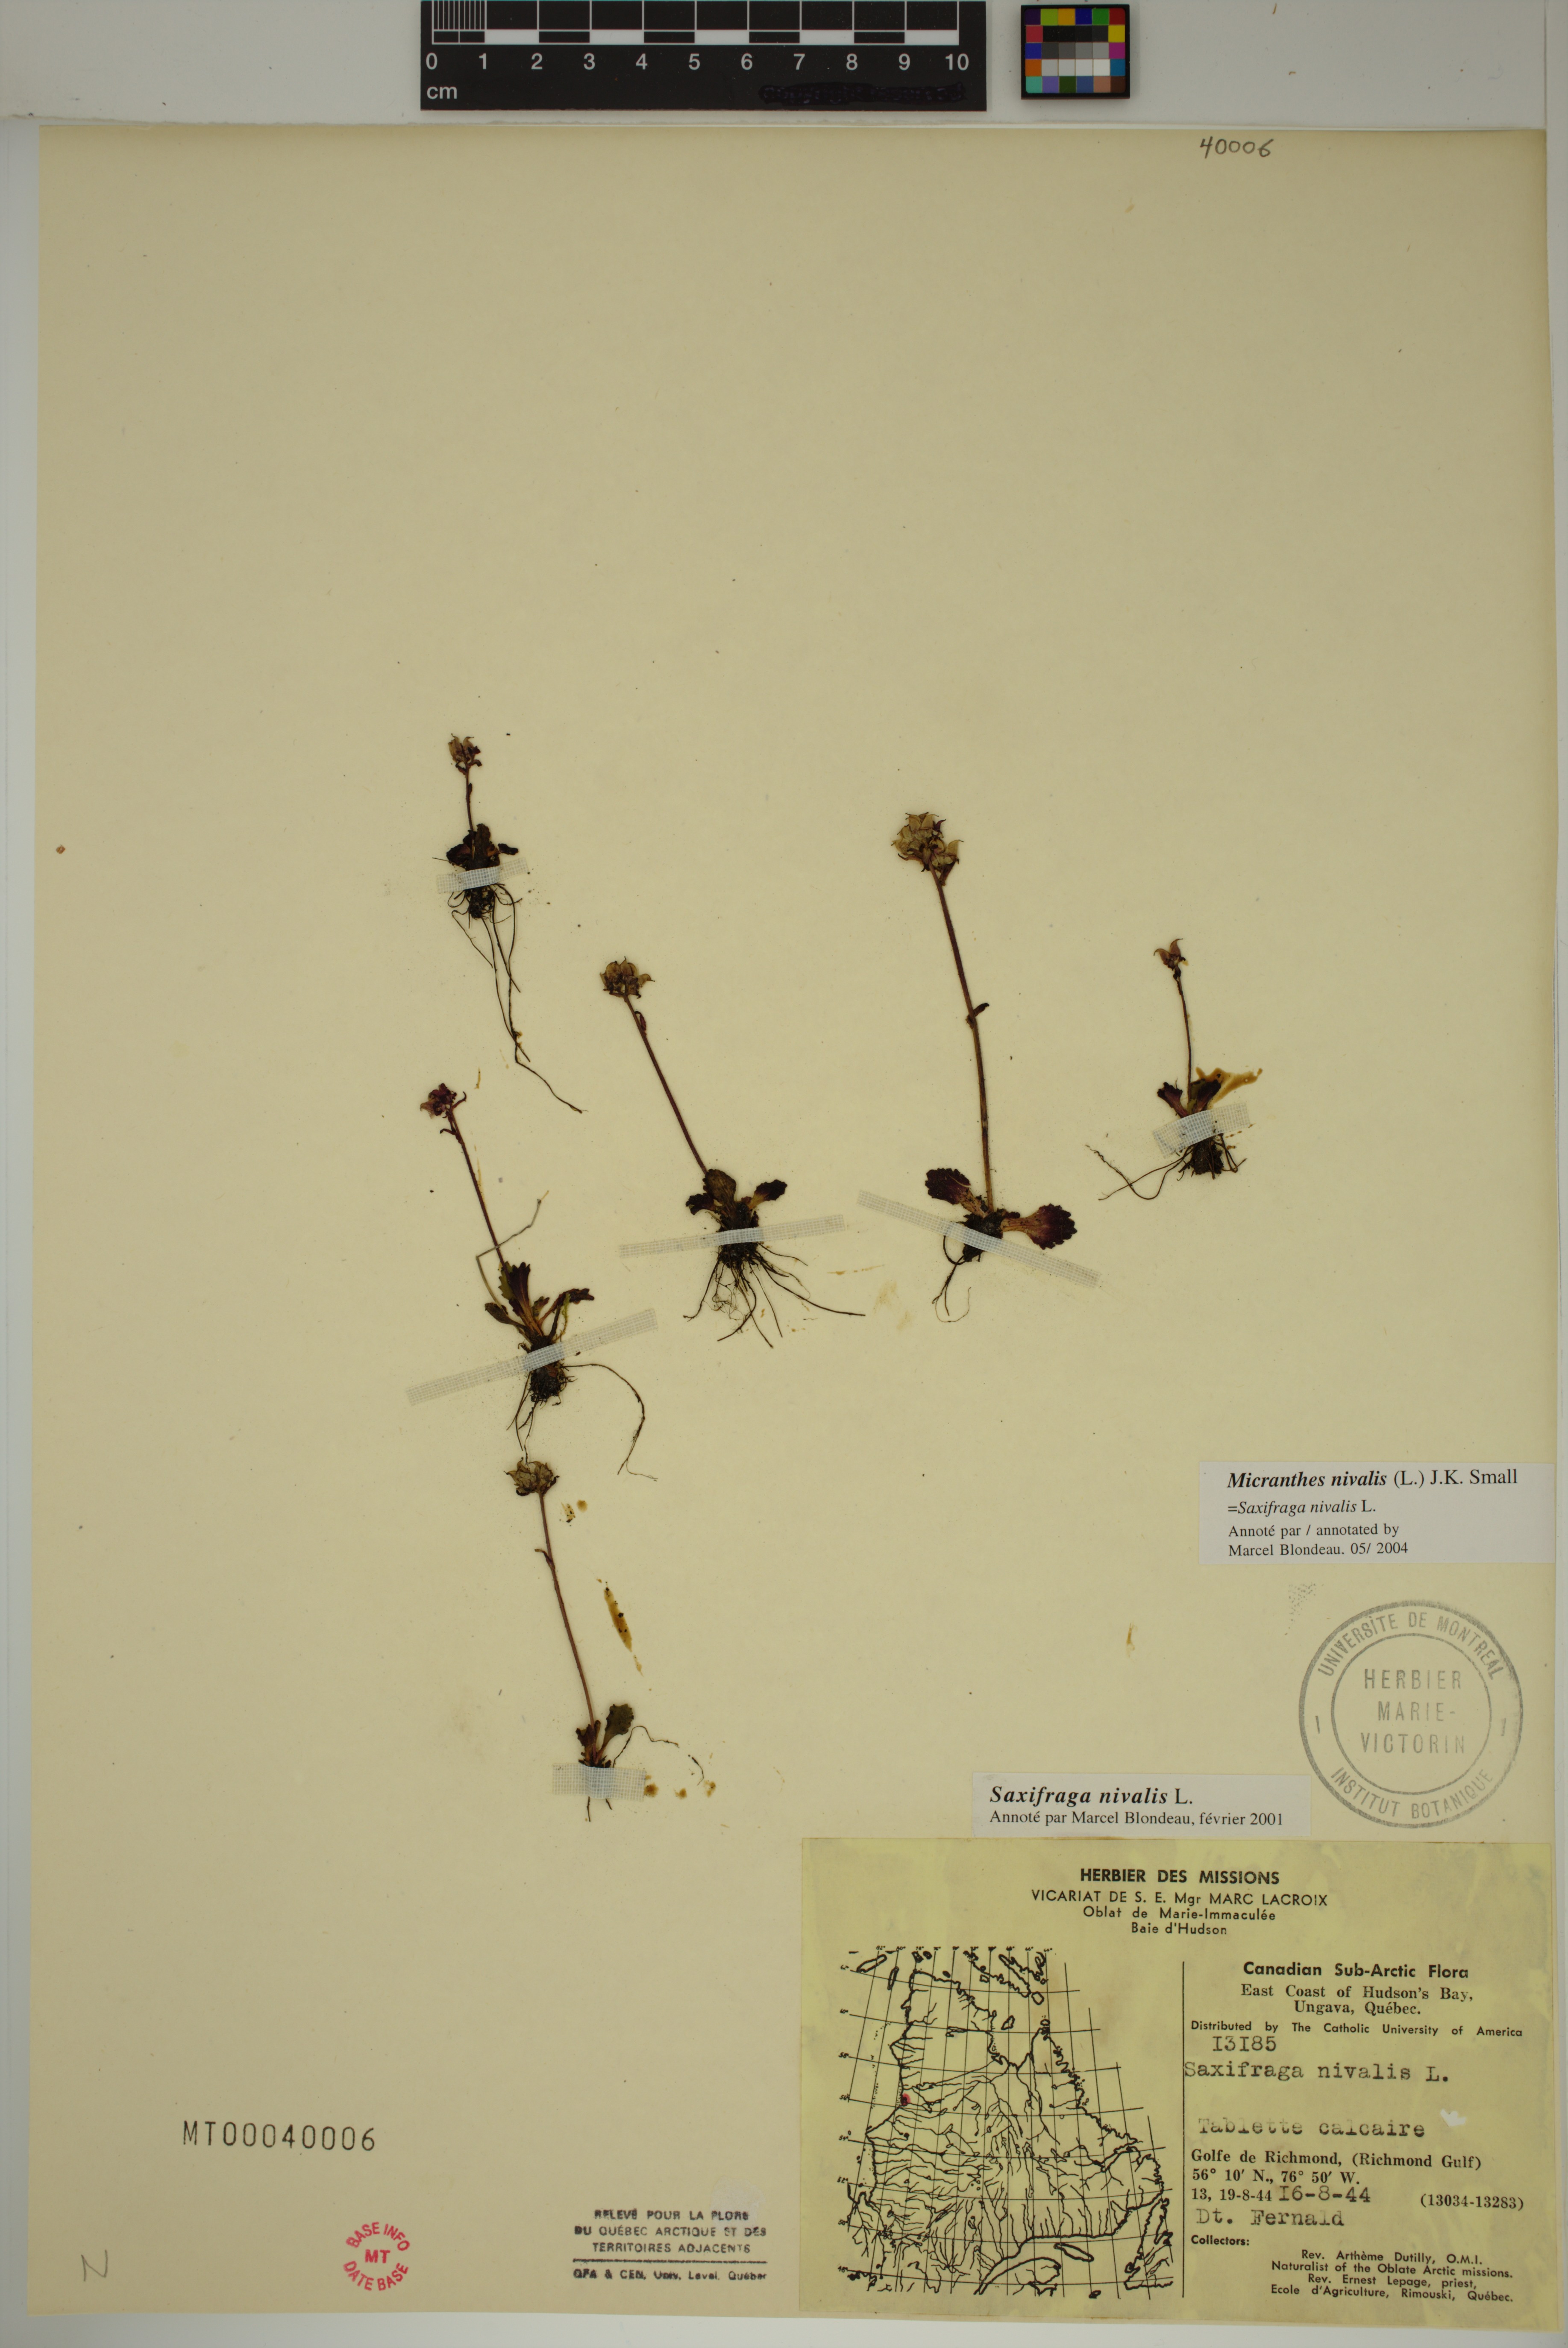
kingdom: Plantae
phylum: Tracheophyta
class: Magnoliopsida
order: Saxifragales
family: Saxifragaceae
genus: Micranthes
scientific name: Micranthes nivalis
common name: Alpine saxifrage
